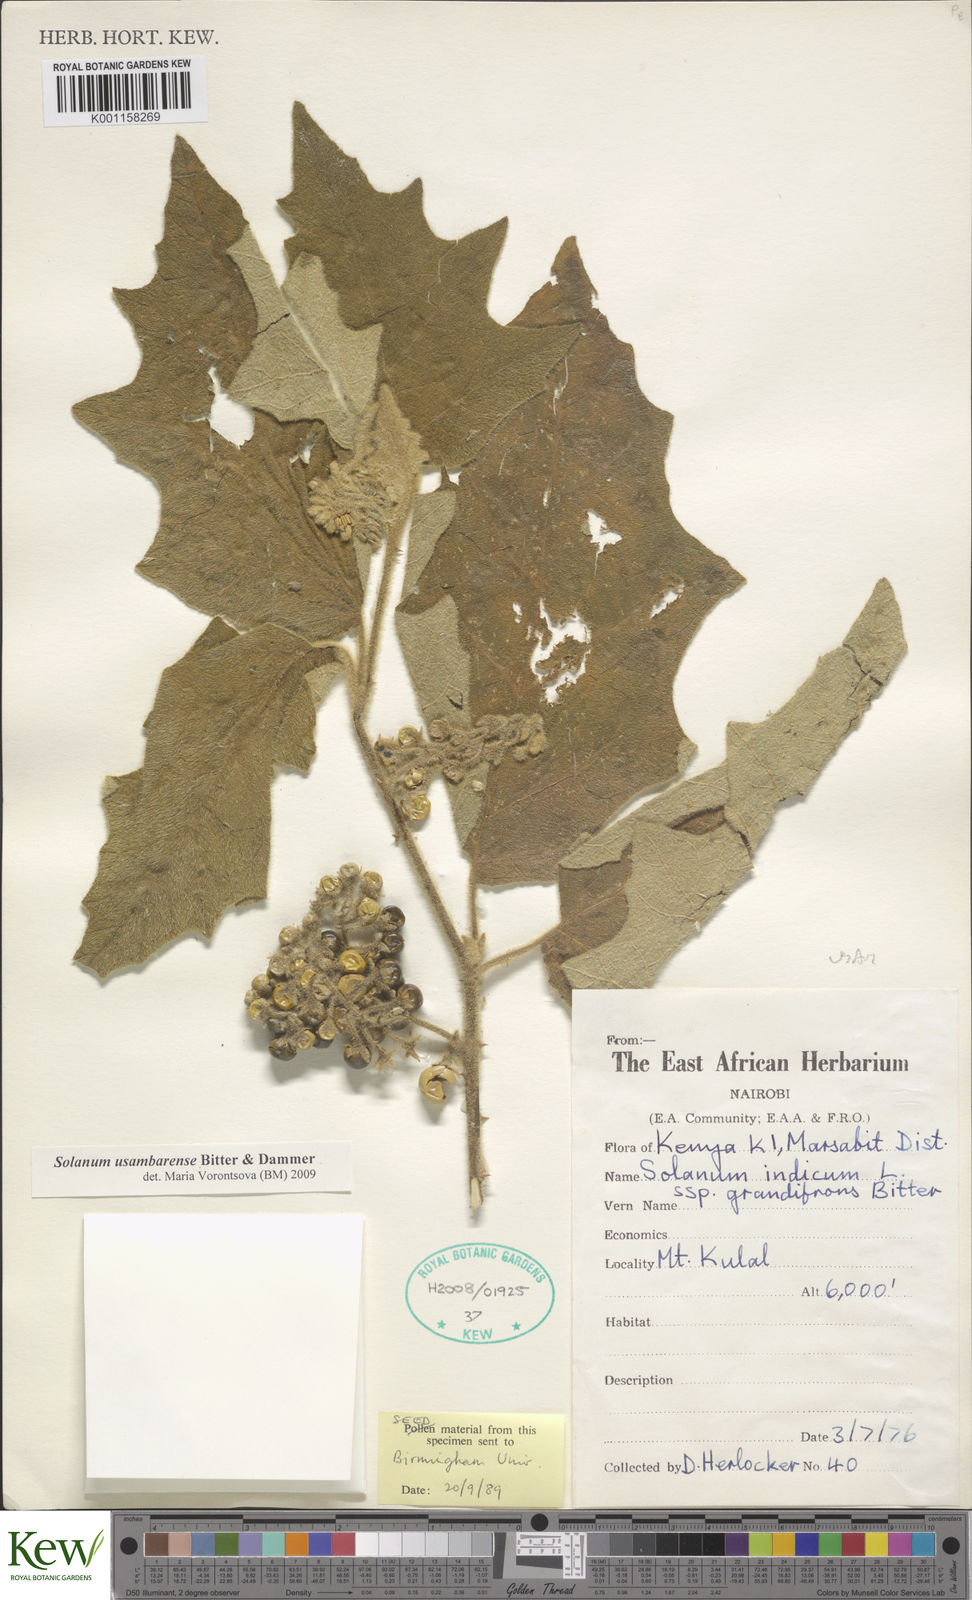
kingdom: Plantae
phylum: Tracheophyta
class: Magnoliopsida
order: Solanales
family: Solanaceae
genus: Solanum
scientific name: Solanum usambarense
